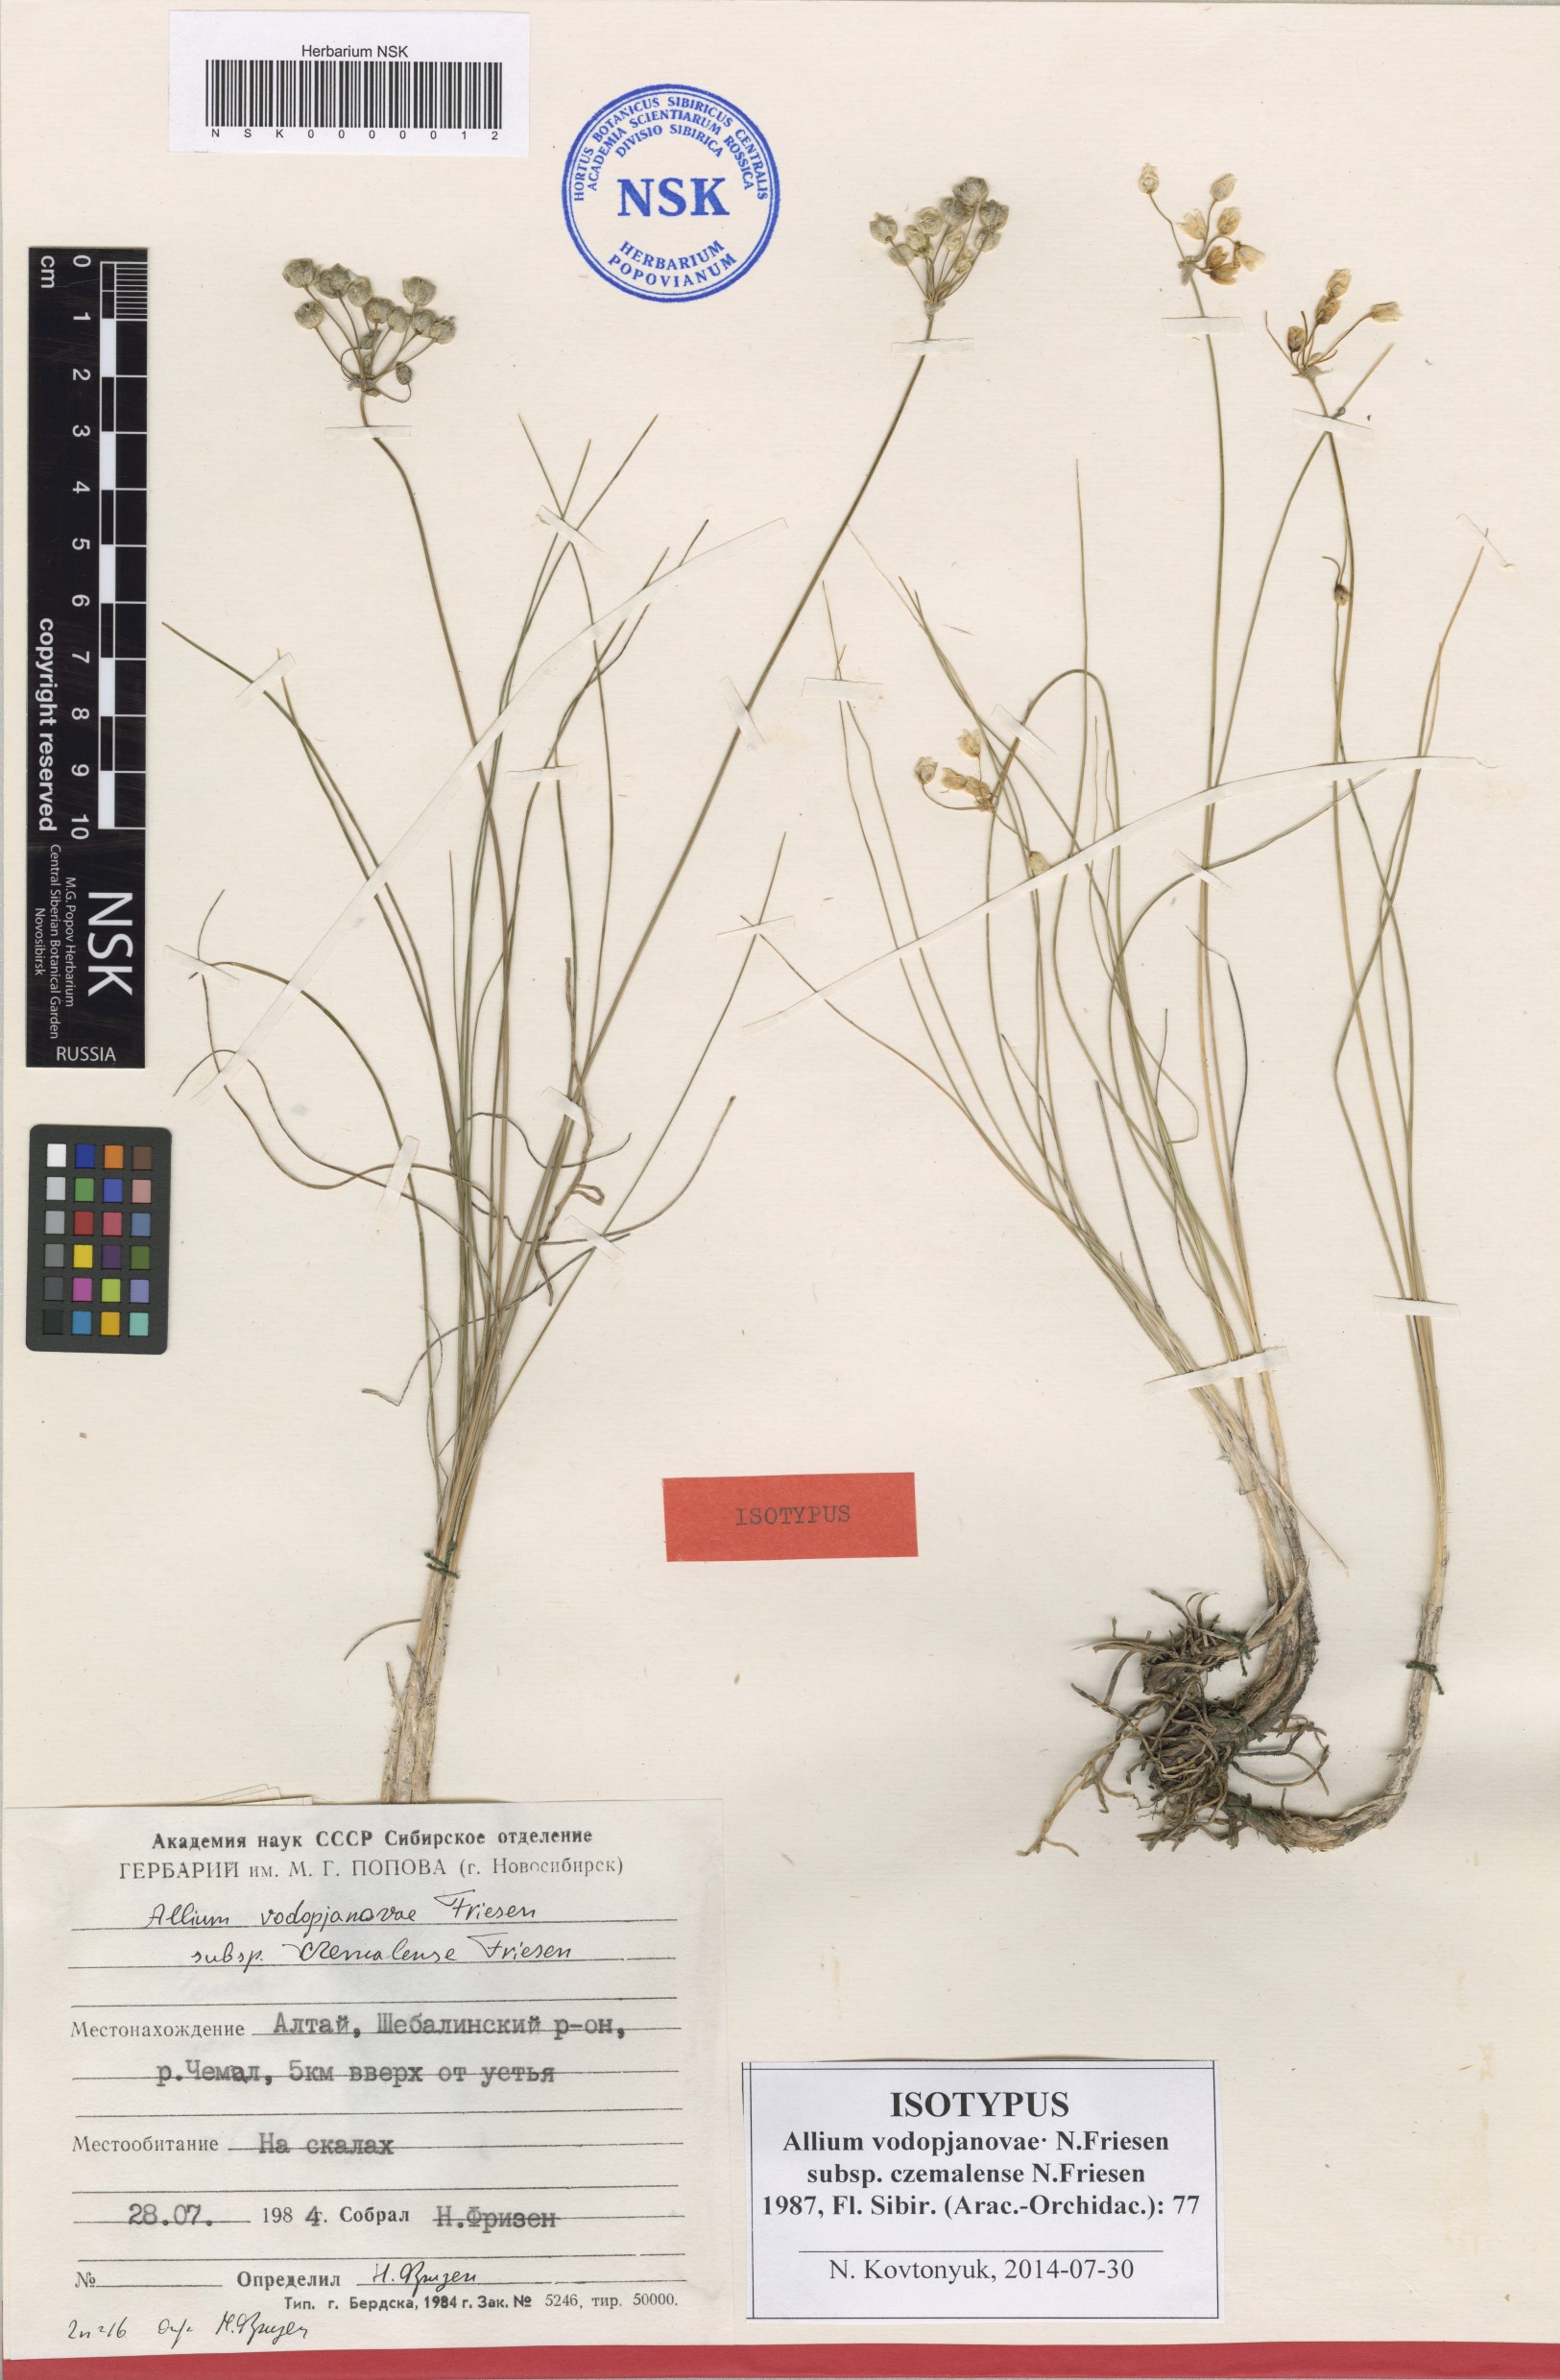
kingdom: Plantae
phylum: Tracheophyta
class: Liliopsida
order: Asparagales
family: Amaryllidaceae
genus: Allium
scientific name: Allium vodopjanovae
